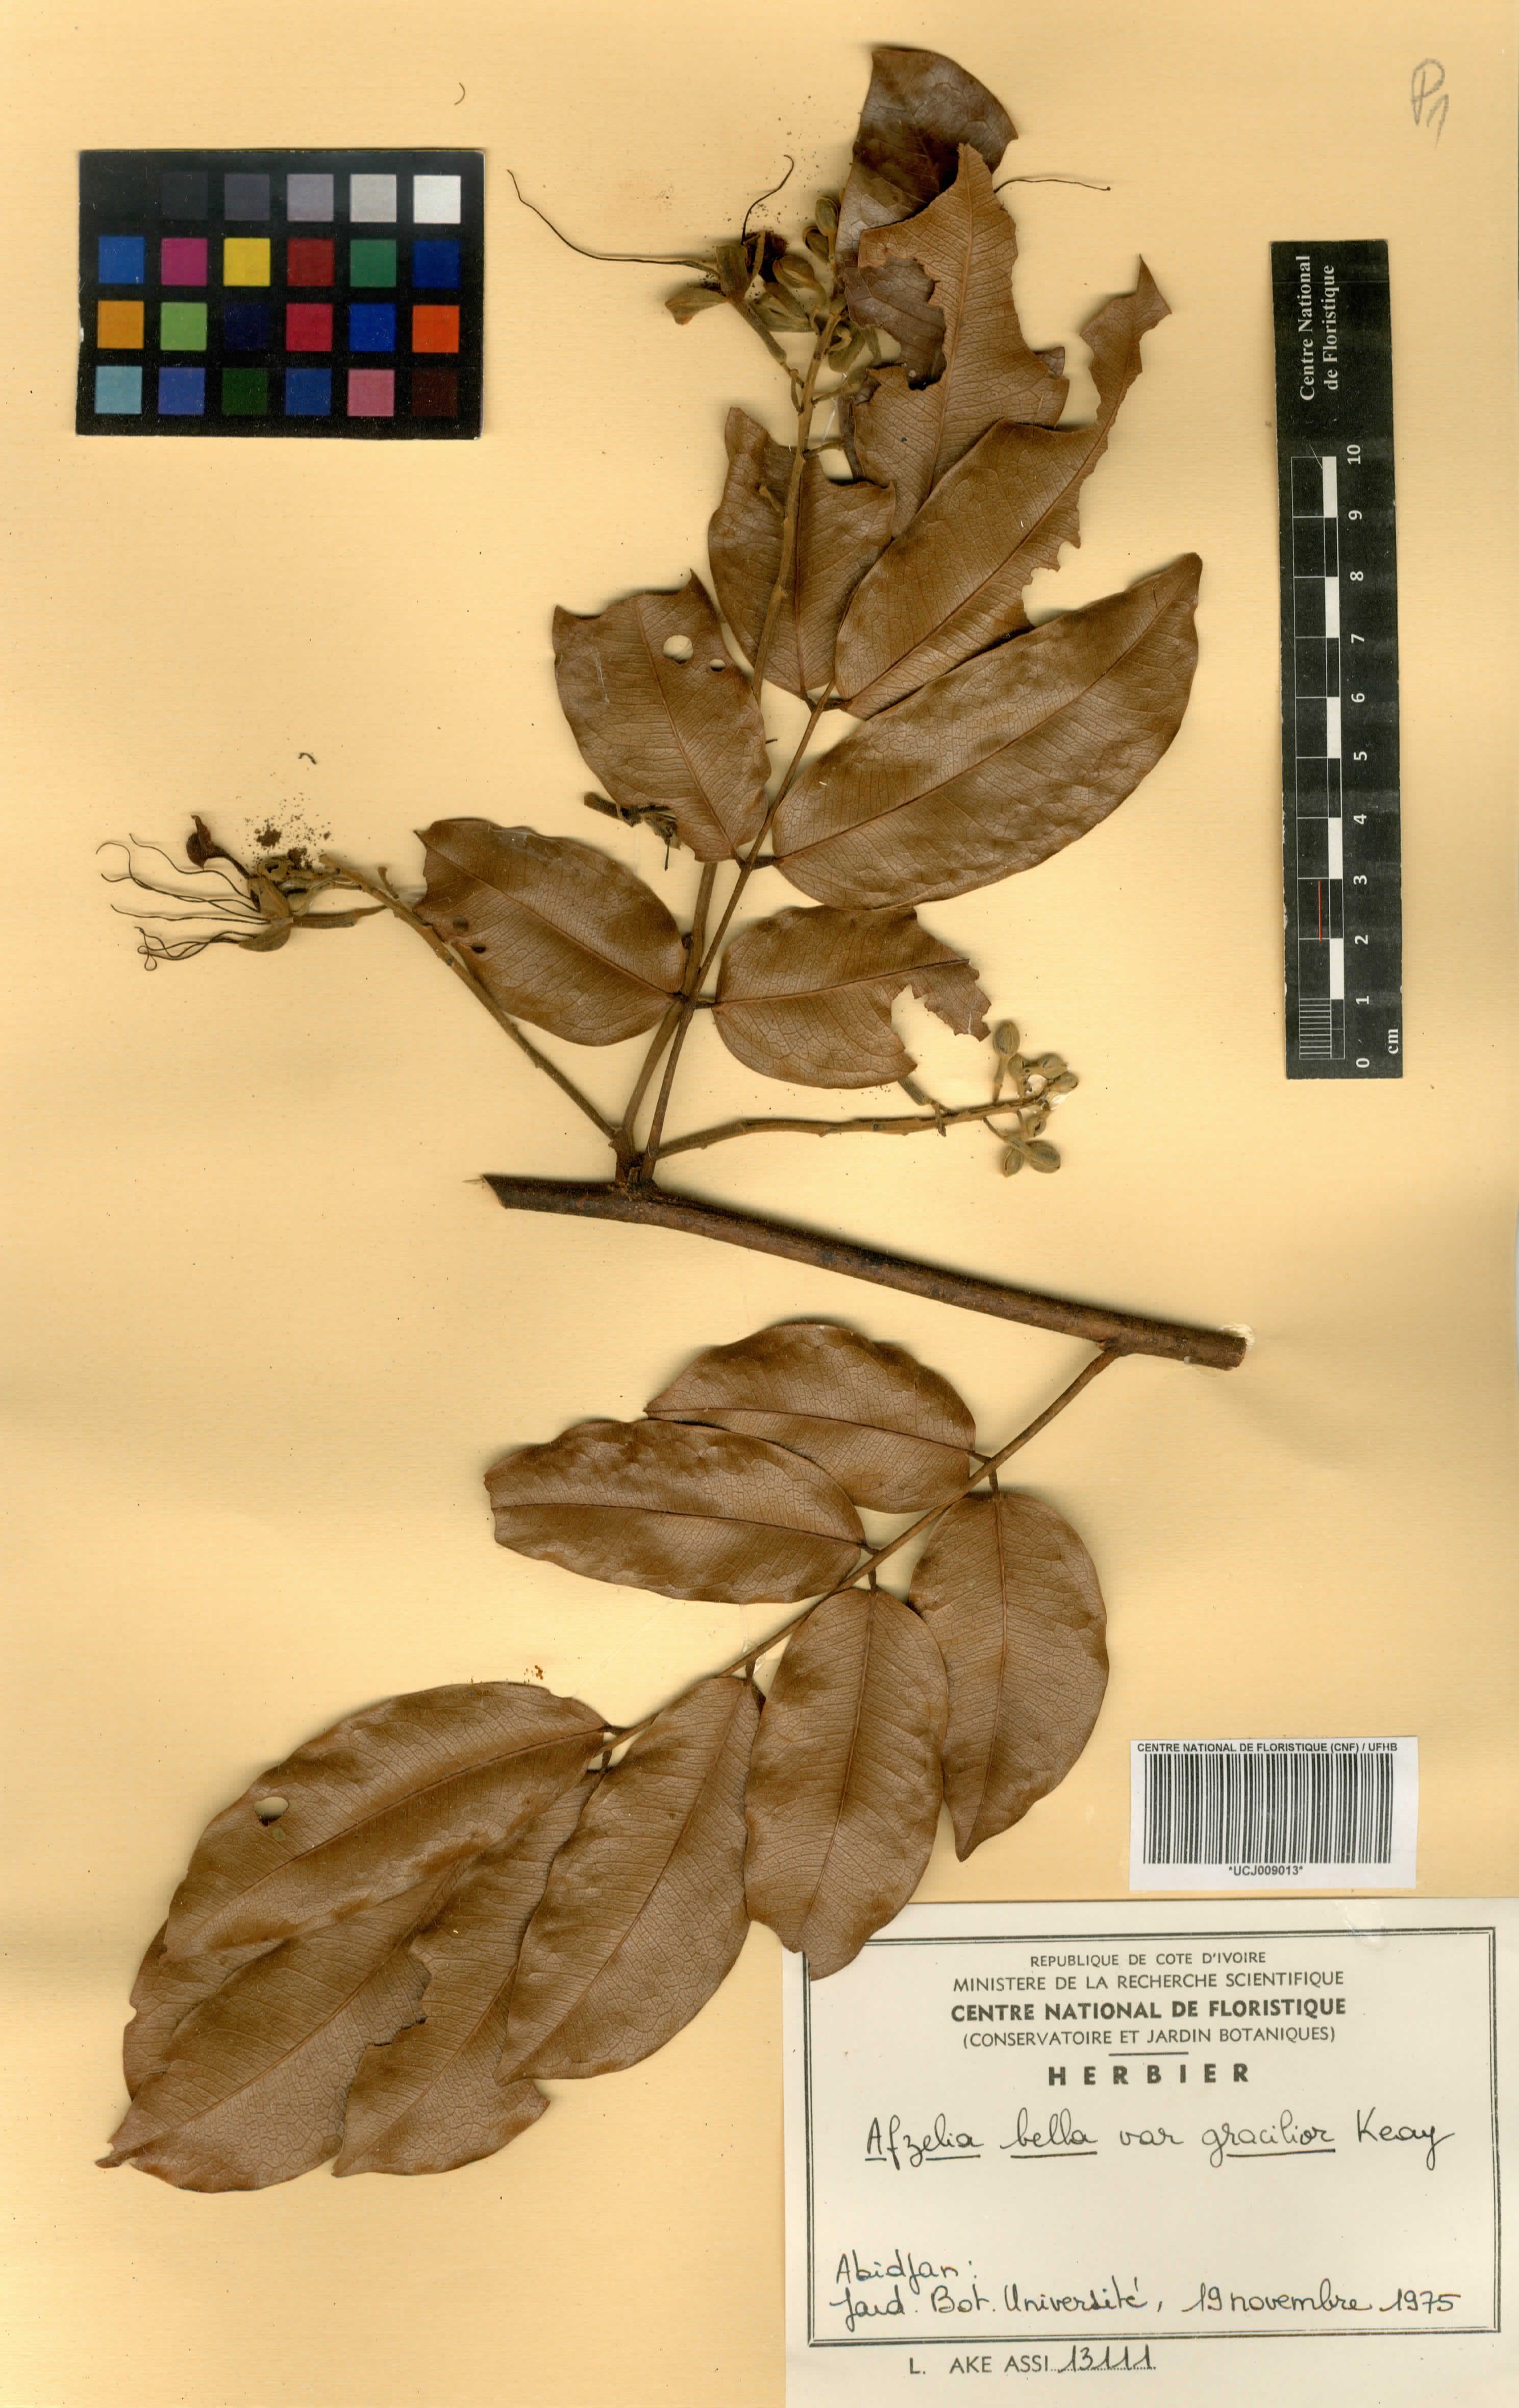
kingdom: Plantae
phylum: Tracheophyta
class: Magnoliopsida
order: Fabales
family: Fabaceae
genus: Afzelia
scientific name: Afzelia bella
